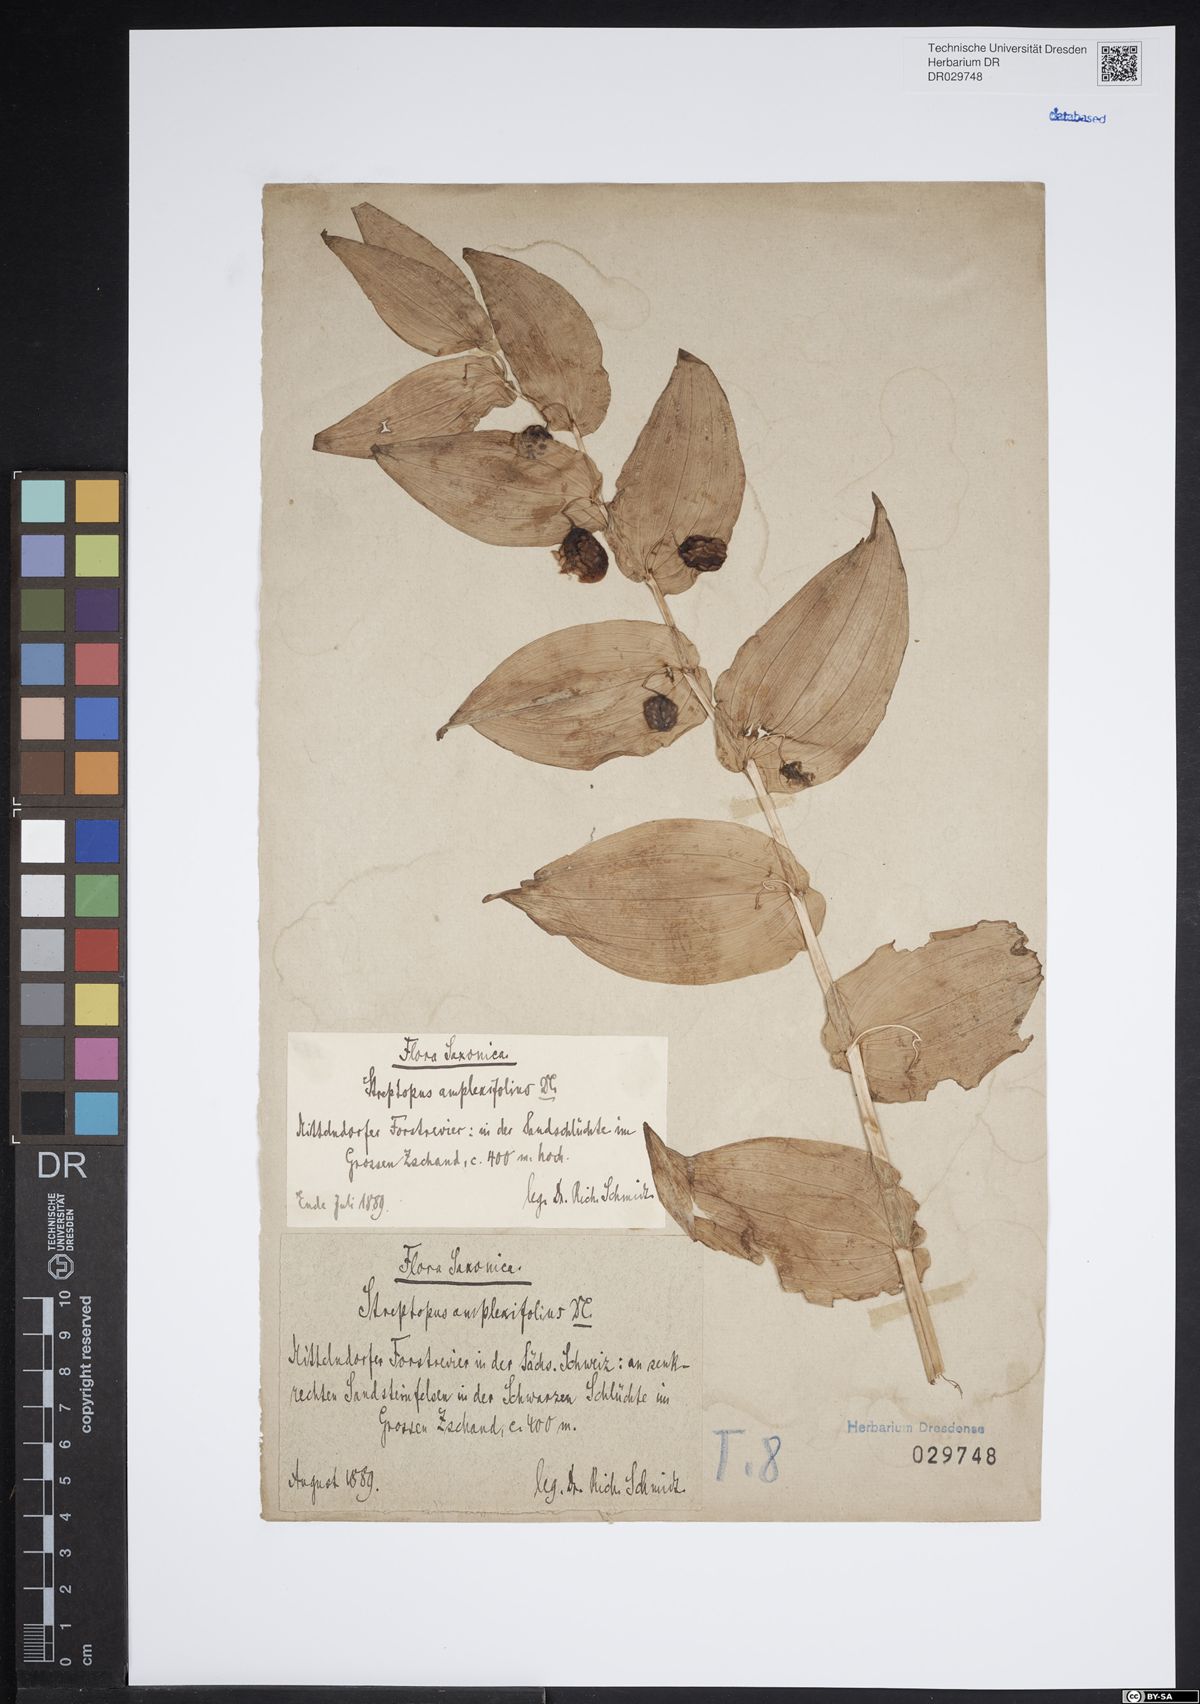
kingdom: Plantae
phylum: Tracheophyta
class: Liliopsida
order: Liliales
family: Liliaceae
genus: Streptopus
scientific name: Streptopus amplexifolius
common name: Clasp twisted stalk
